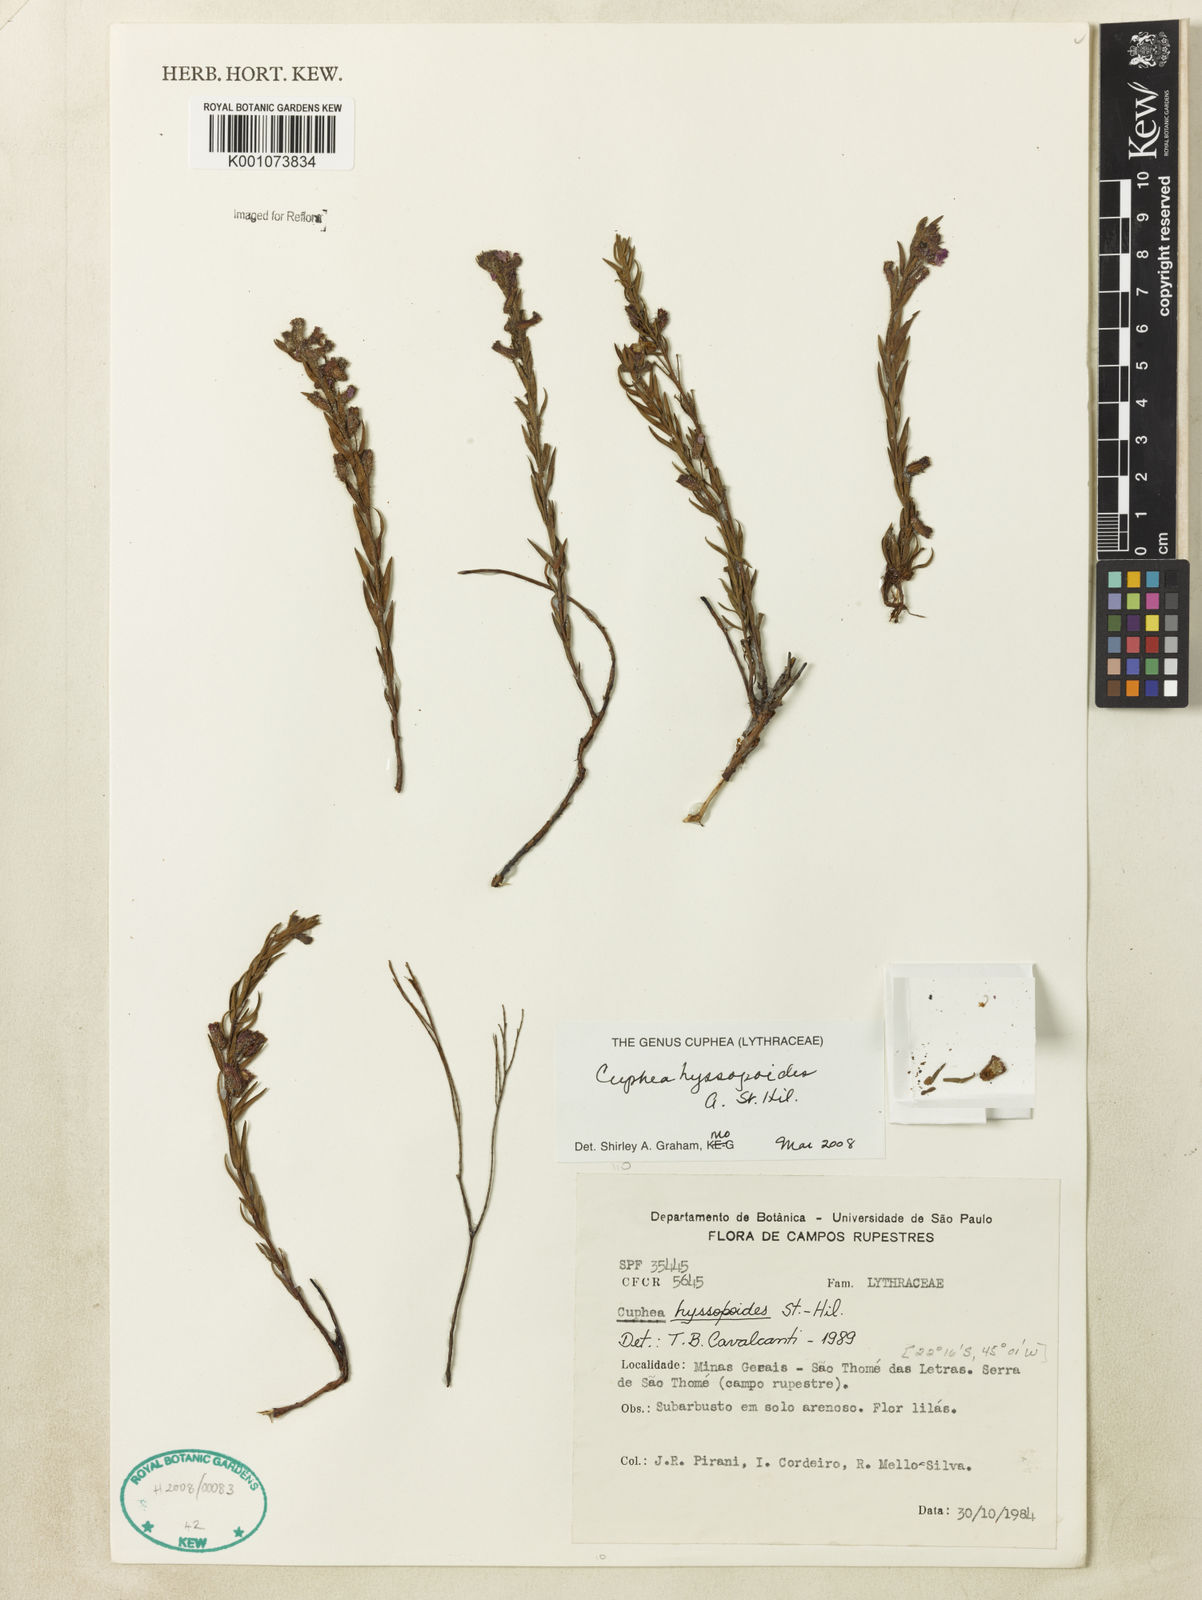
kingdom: Plantae
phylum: Tracheophyta
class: Magnoliopsida
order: Myrtales
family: Lythraceae
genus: Cuphea
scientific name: Cuphea hyssopoides
